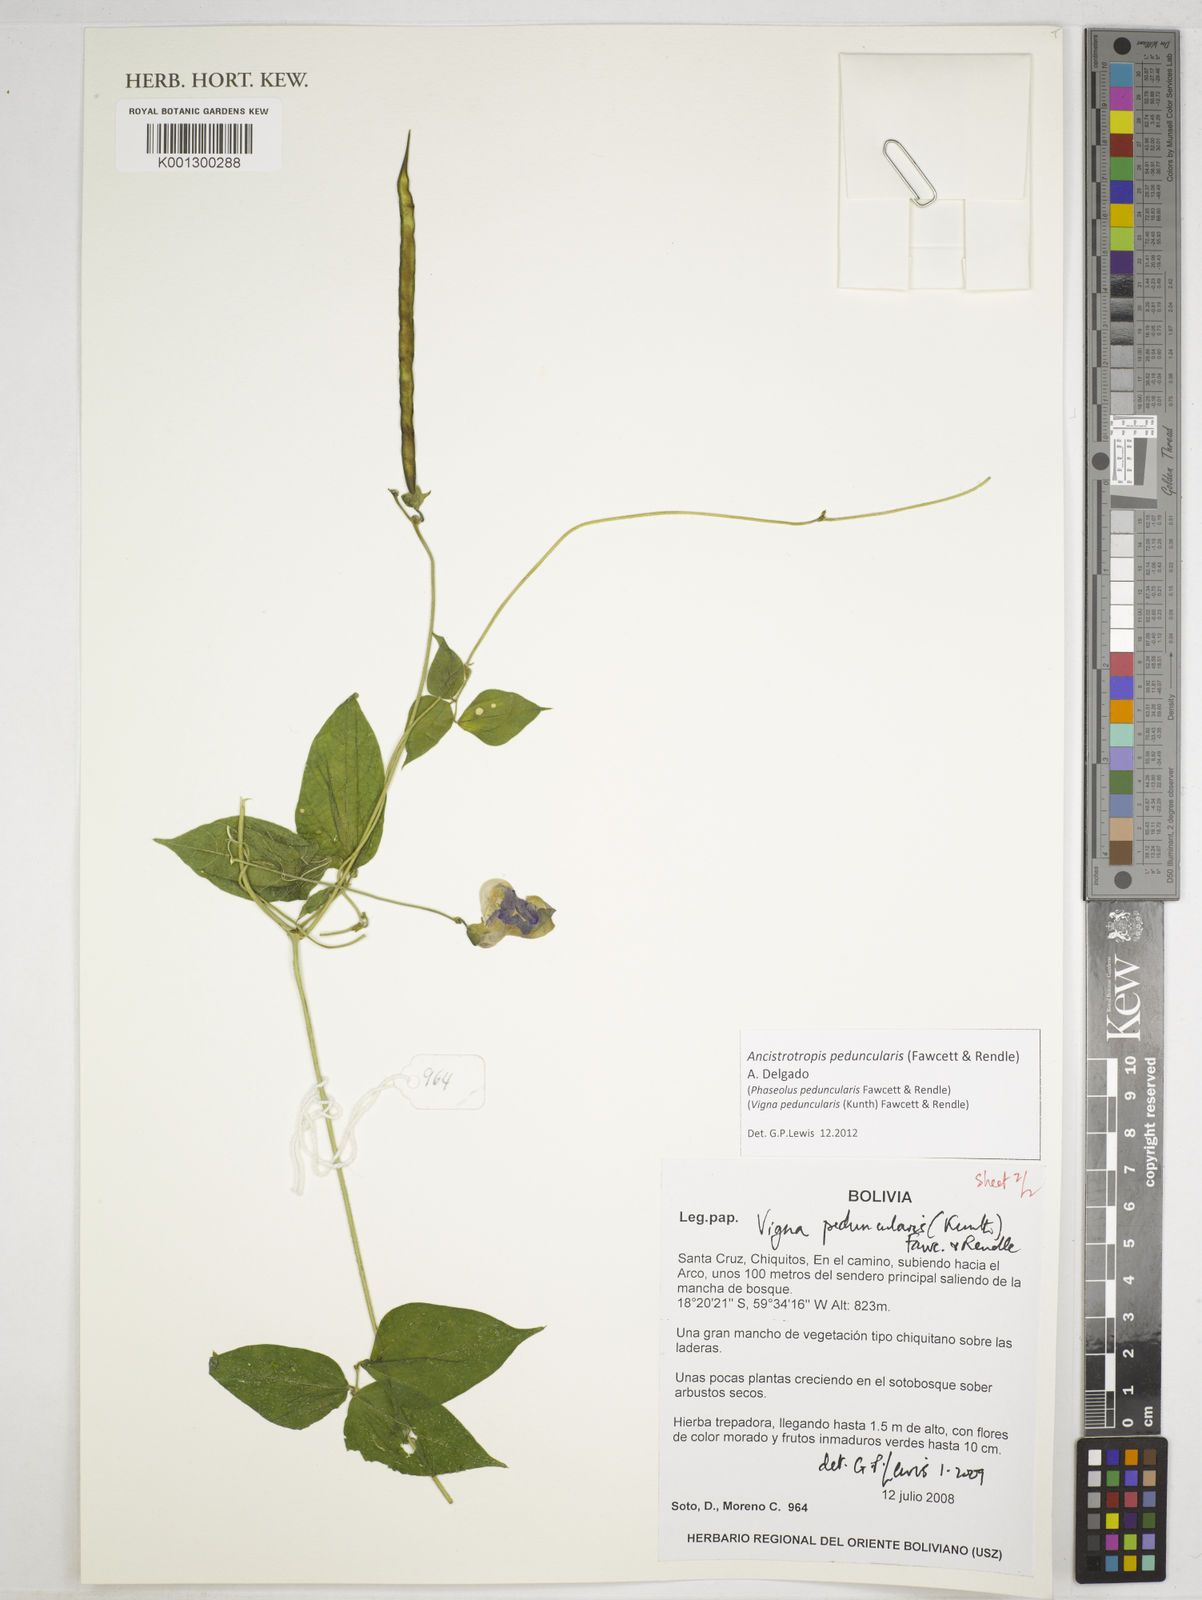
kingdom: Plantae
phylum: Tracheophyta
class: Magnoliopsida
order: Fabales
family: Fabaceae
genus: Ancistrotropis
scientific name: Ancistrotropis peduncularis
